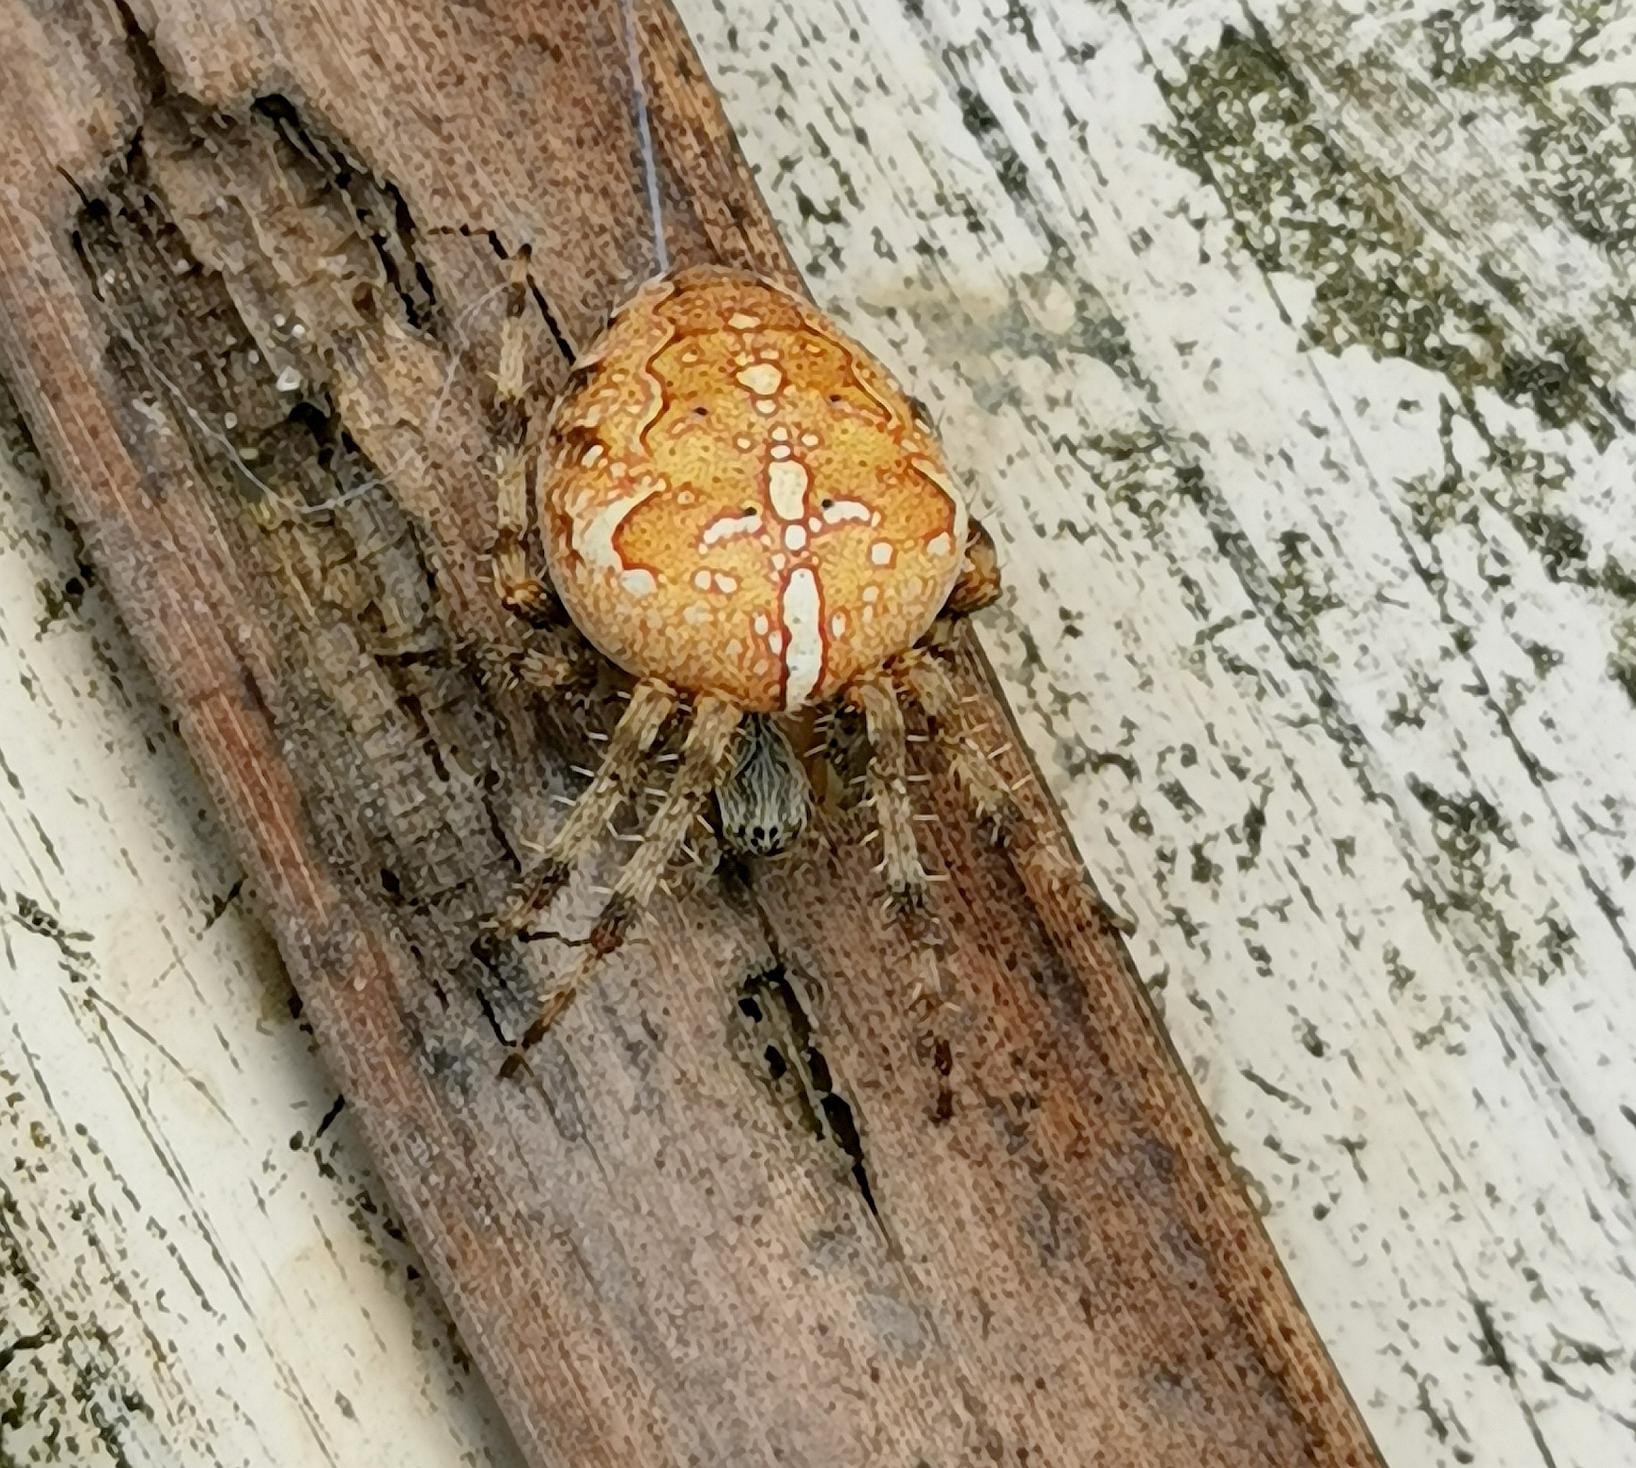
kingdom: Animalia
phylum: Arthropoda
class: Arachnida
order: Araneae
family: Araneidae
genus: Araneus
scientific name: Araneus diadematus
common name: Korsedderkop
